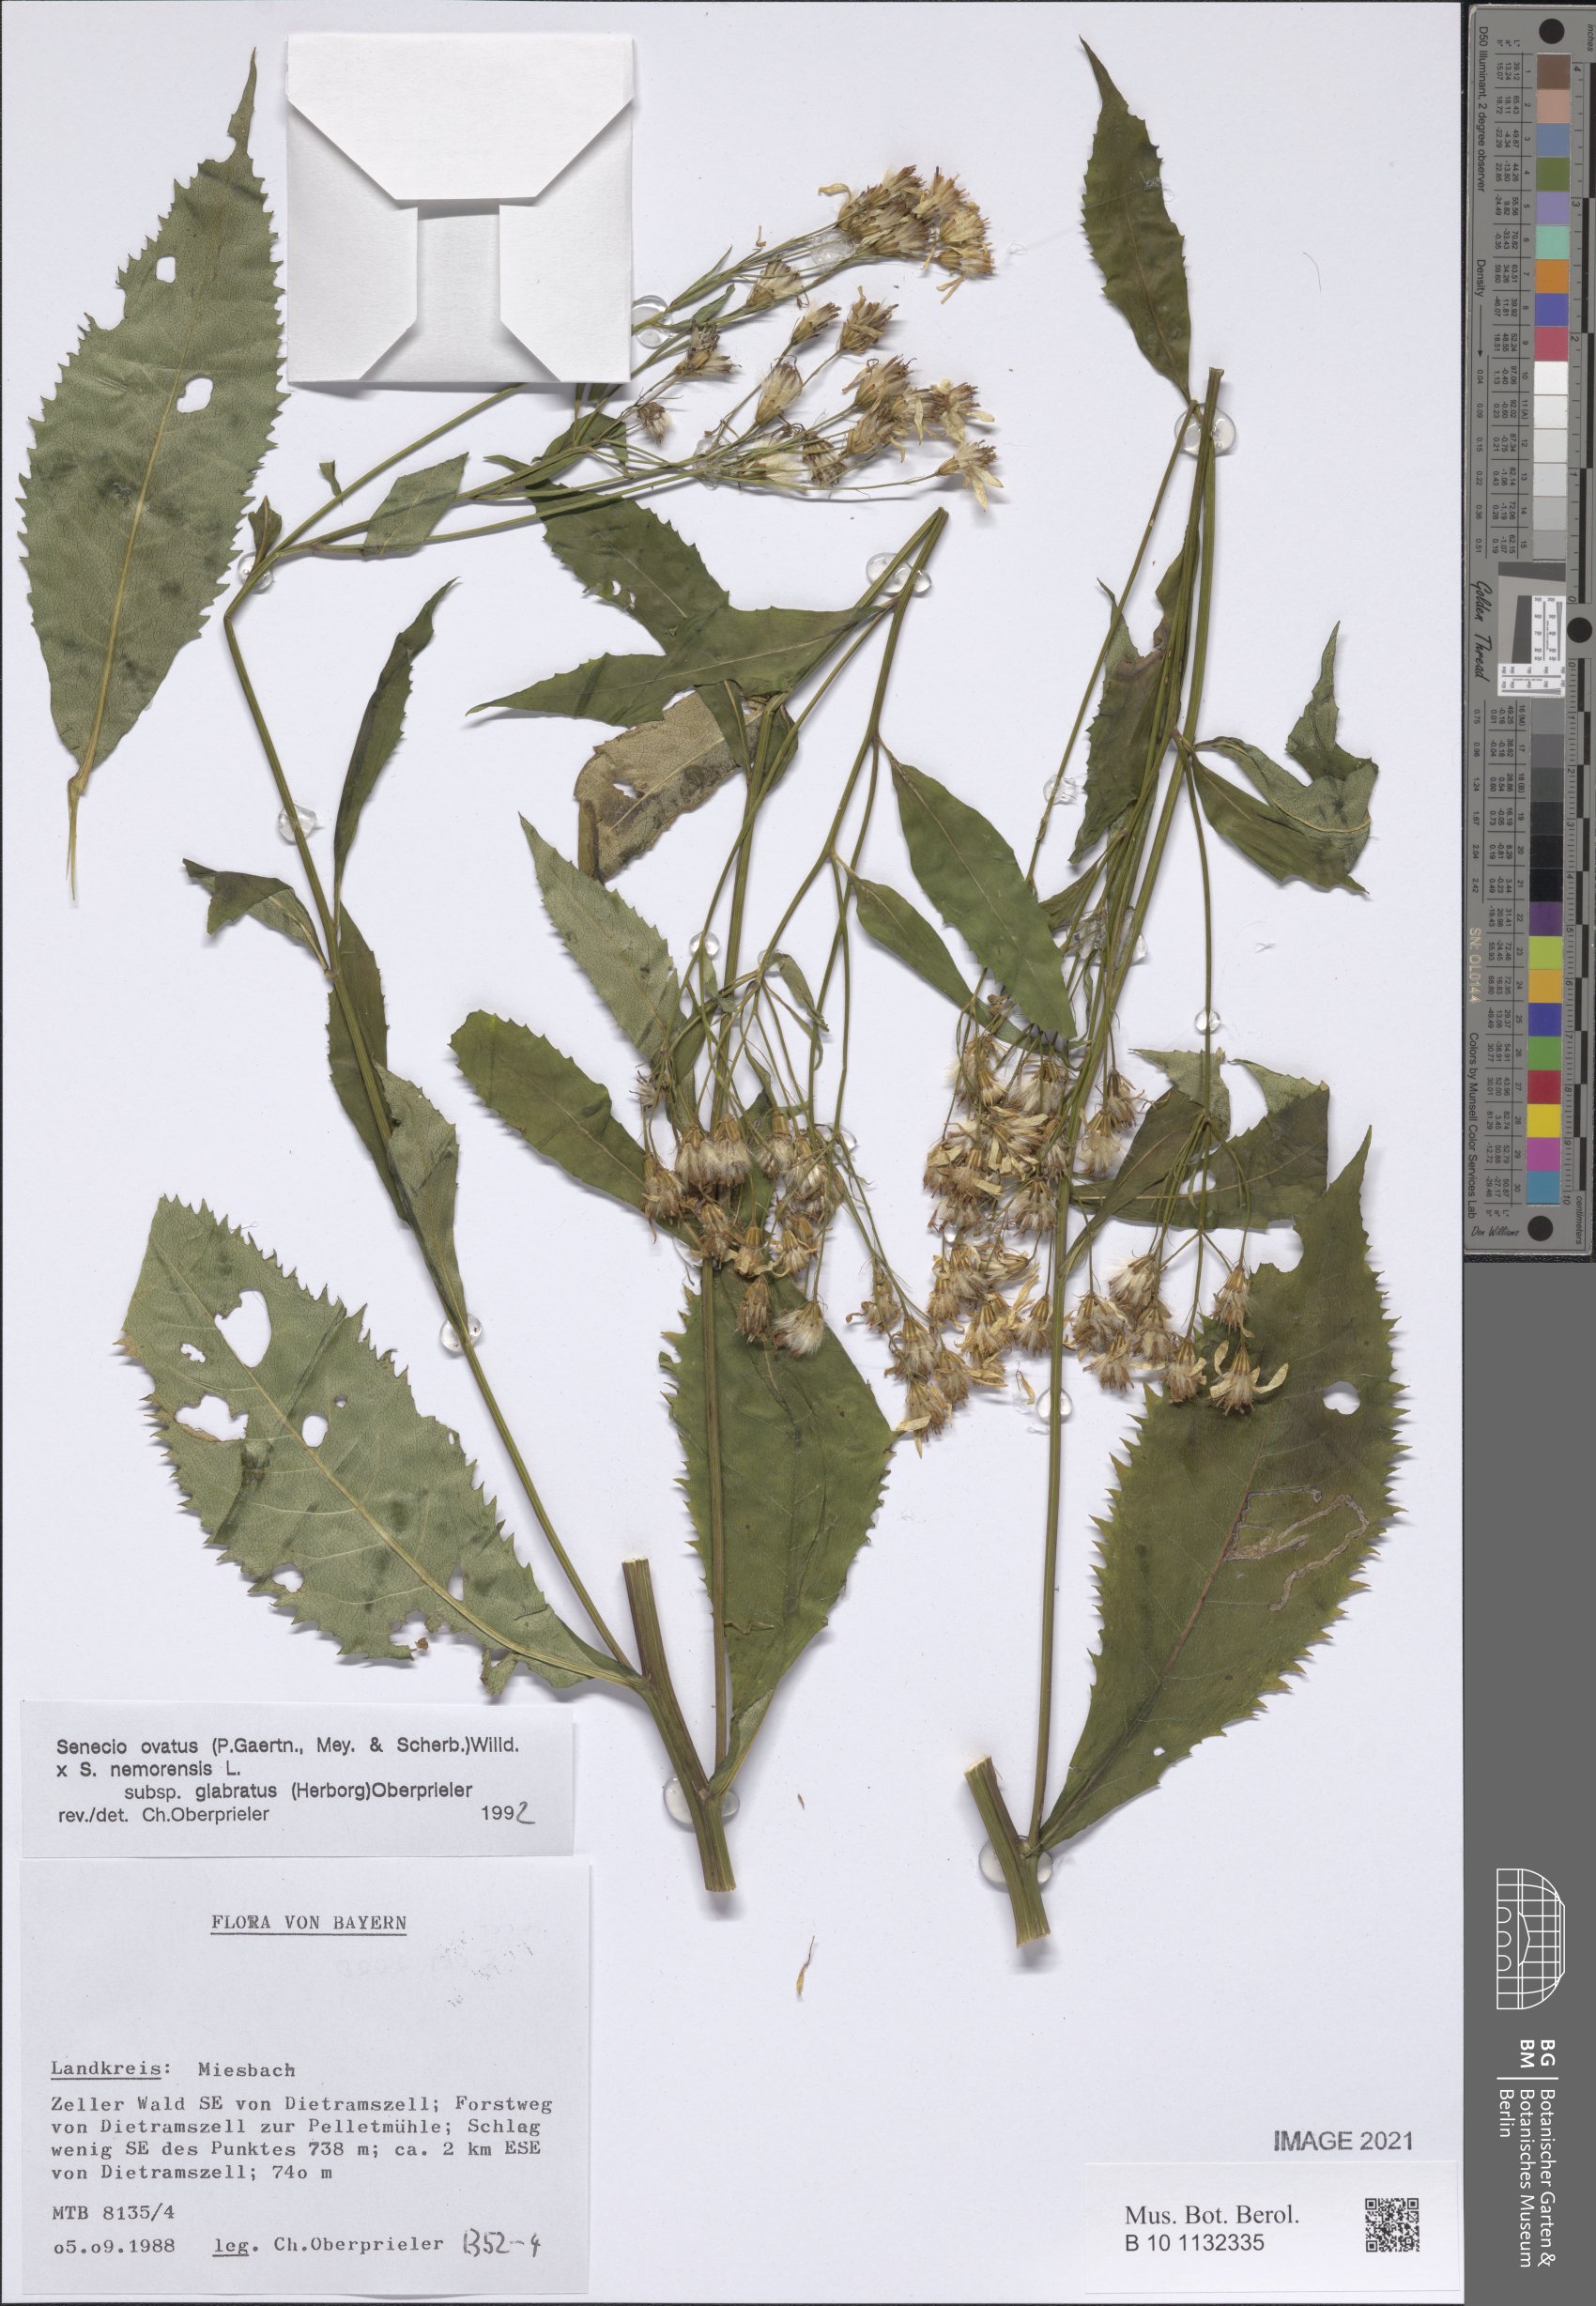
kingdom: Plantae
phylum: Tracheophyta
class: Magnoliopsida
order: Asterales
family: Asteraceae
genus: Senecio
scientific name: Senecio ovatus
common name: Wood ragwort
